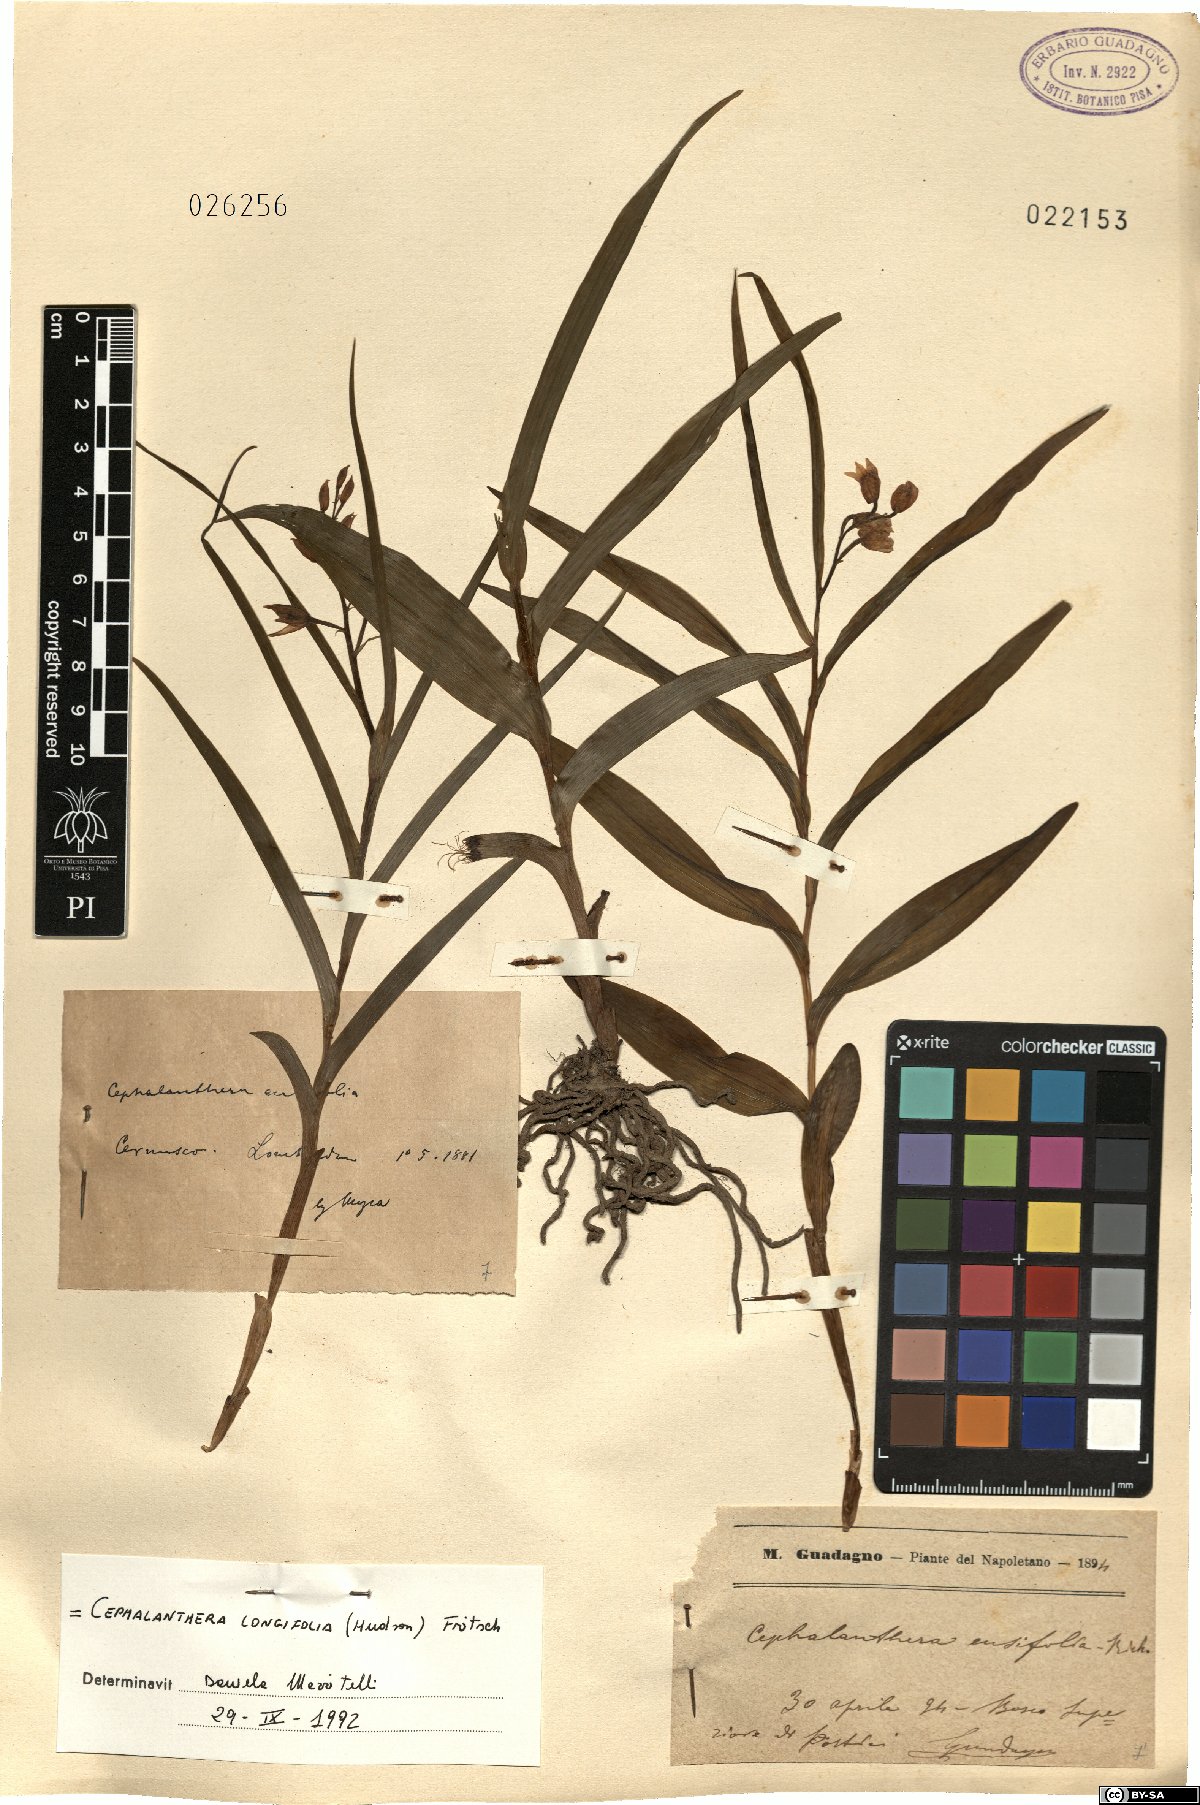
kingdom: Plantae
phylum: Tracheophyta
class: Liliopsida
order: Asparagales
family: Orchidaceae
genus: Cephalanthera
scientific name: Cephalanthera longifolia
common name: Narrow-leaved helleborine
